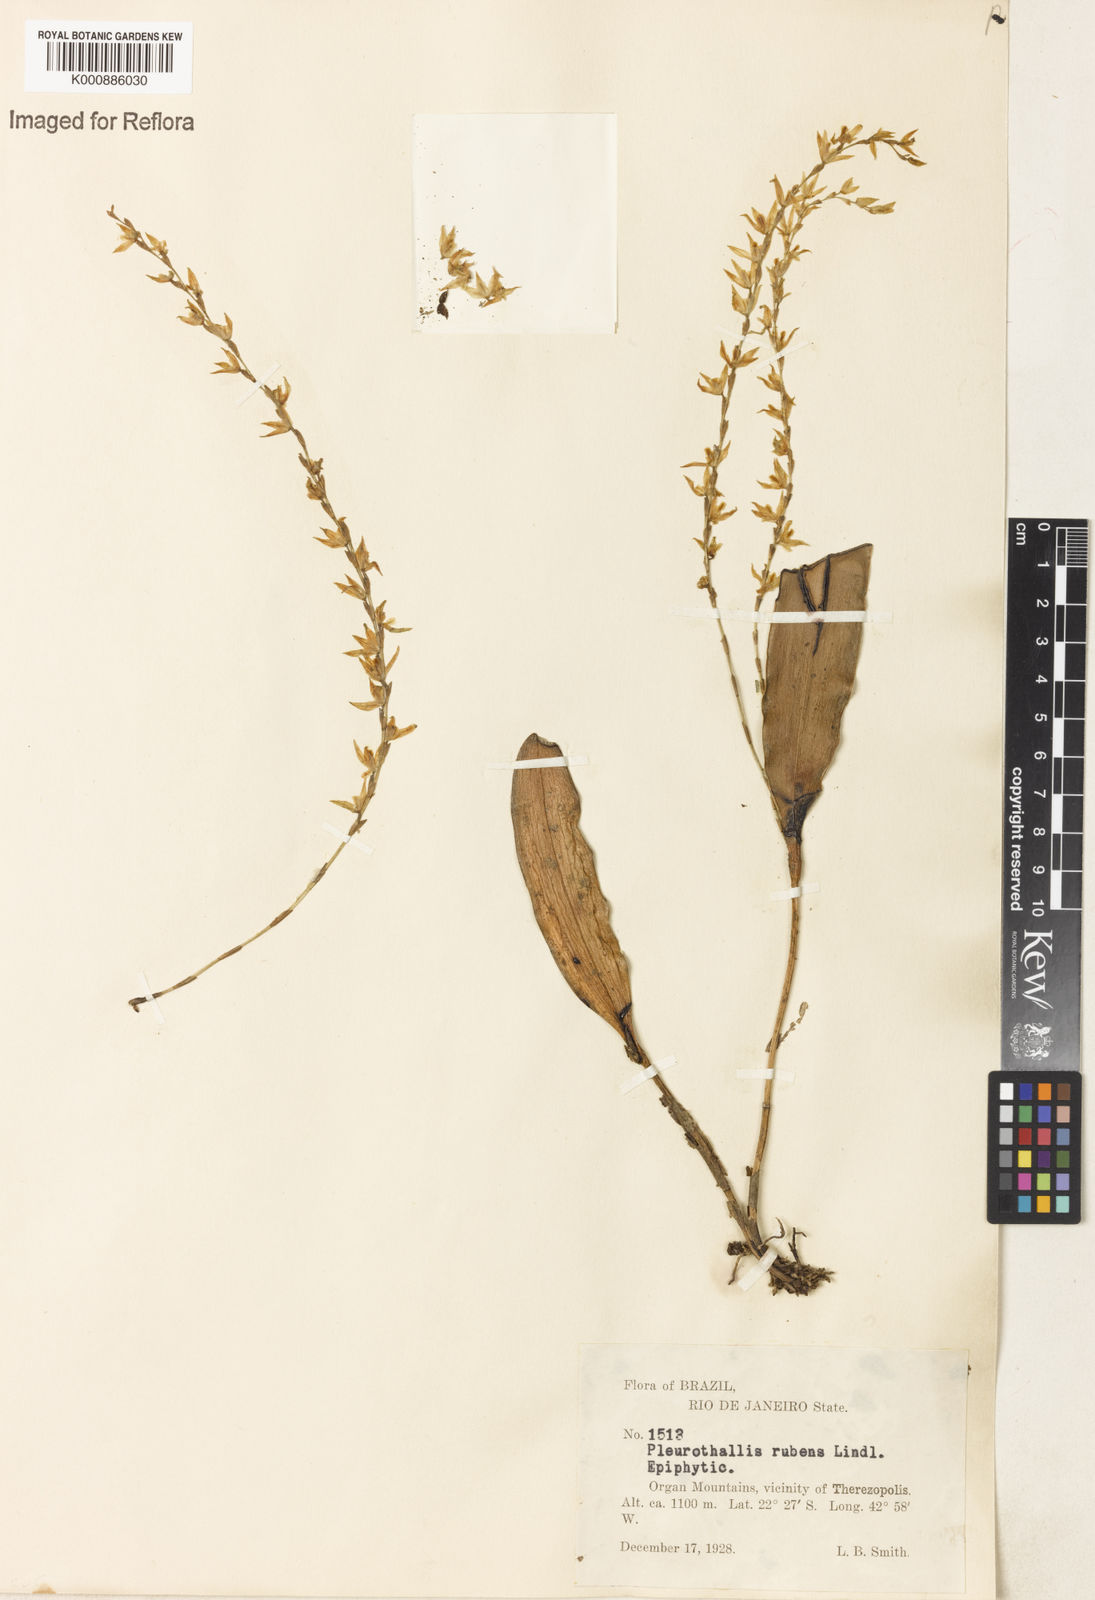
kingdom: Plantae
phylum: Tracheophyta
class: Liliopsida
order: Asparagales
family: Orchidaceae
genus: Stelis
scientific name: Stelis montserratii
